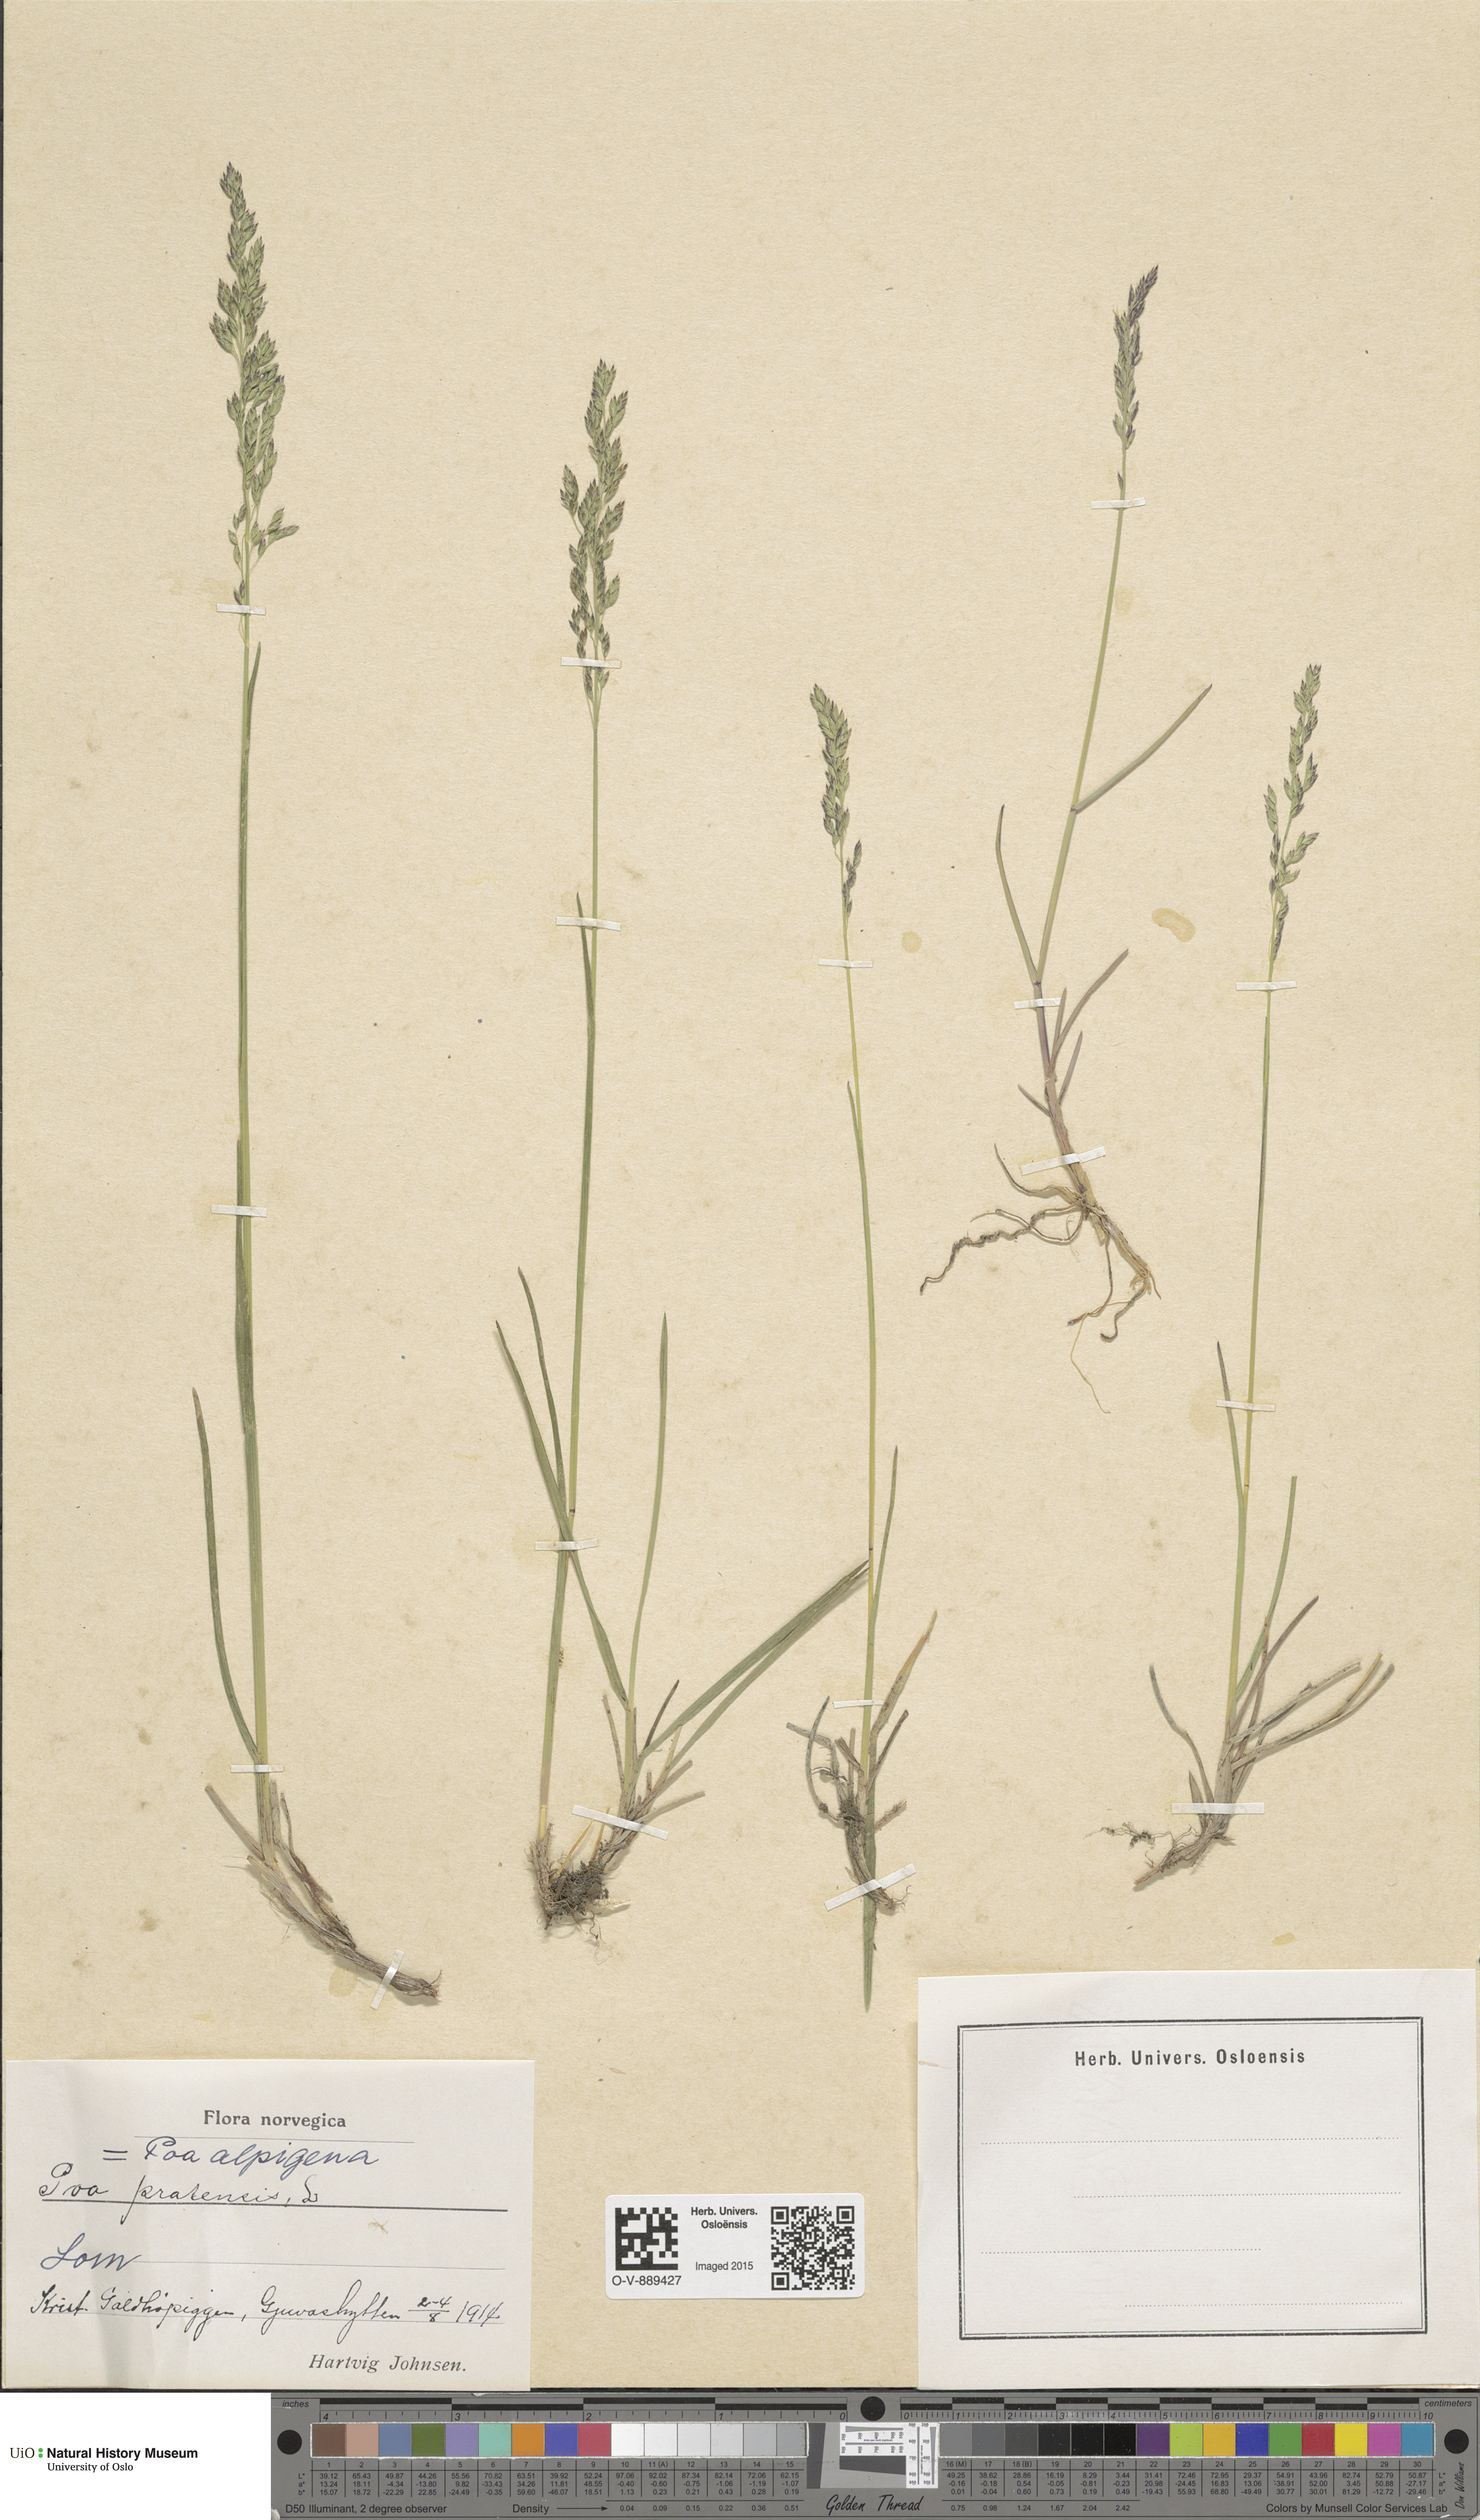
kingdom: Plantae
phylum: Tracheophyta
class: Liliopsida
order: Poales
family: Poaceae
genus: Poa
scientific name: Poa alpigena
